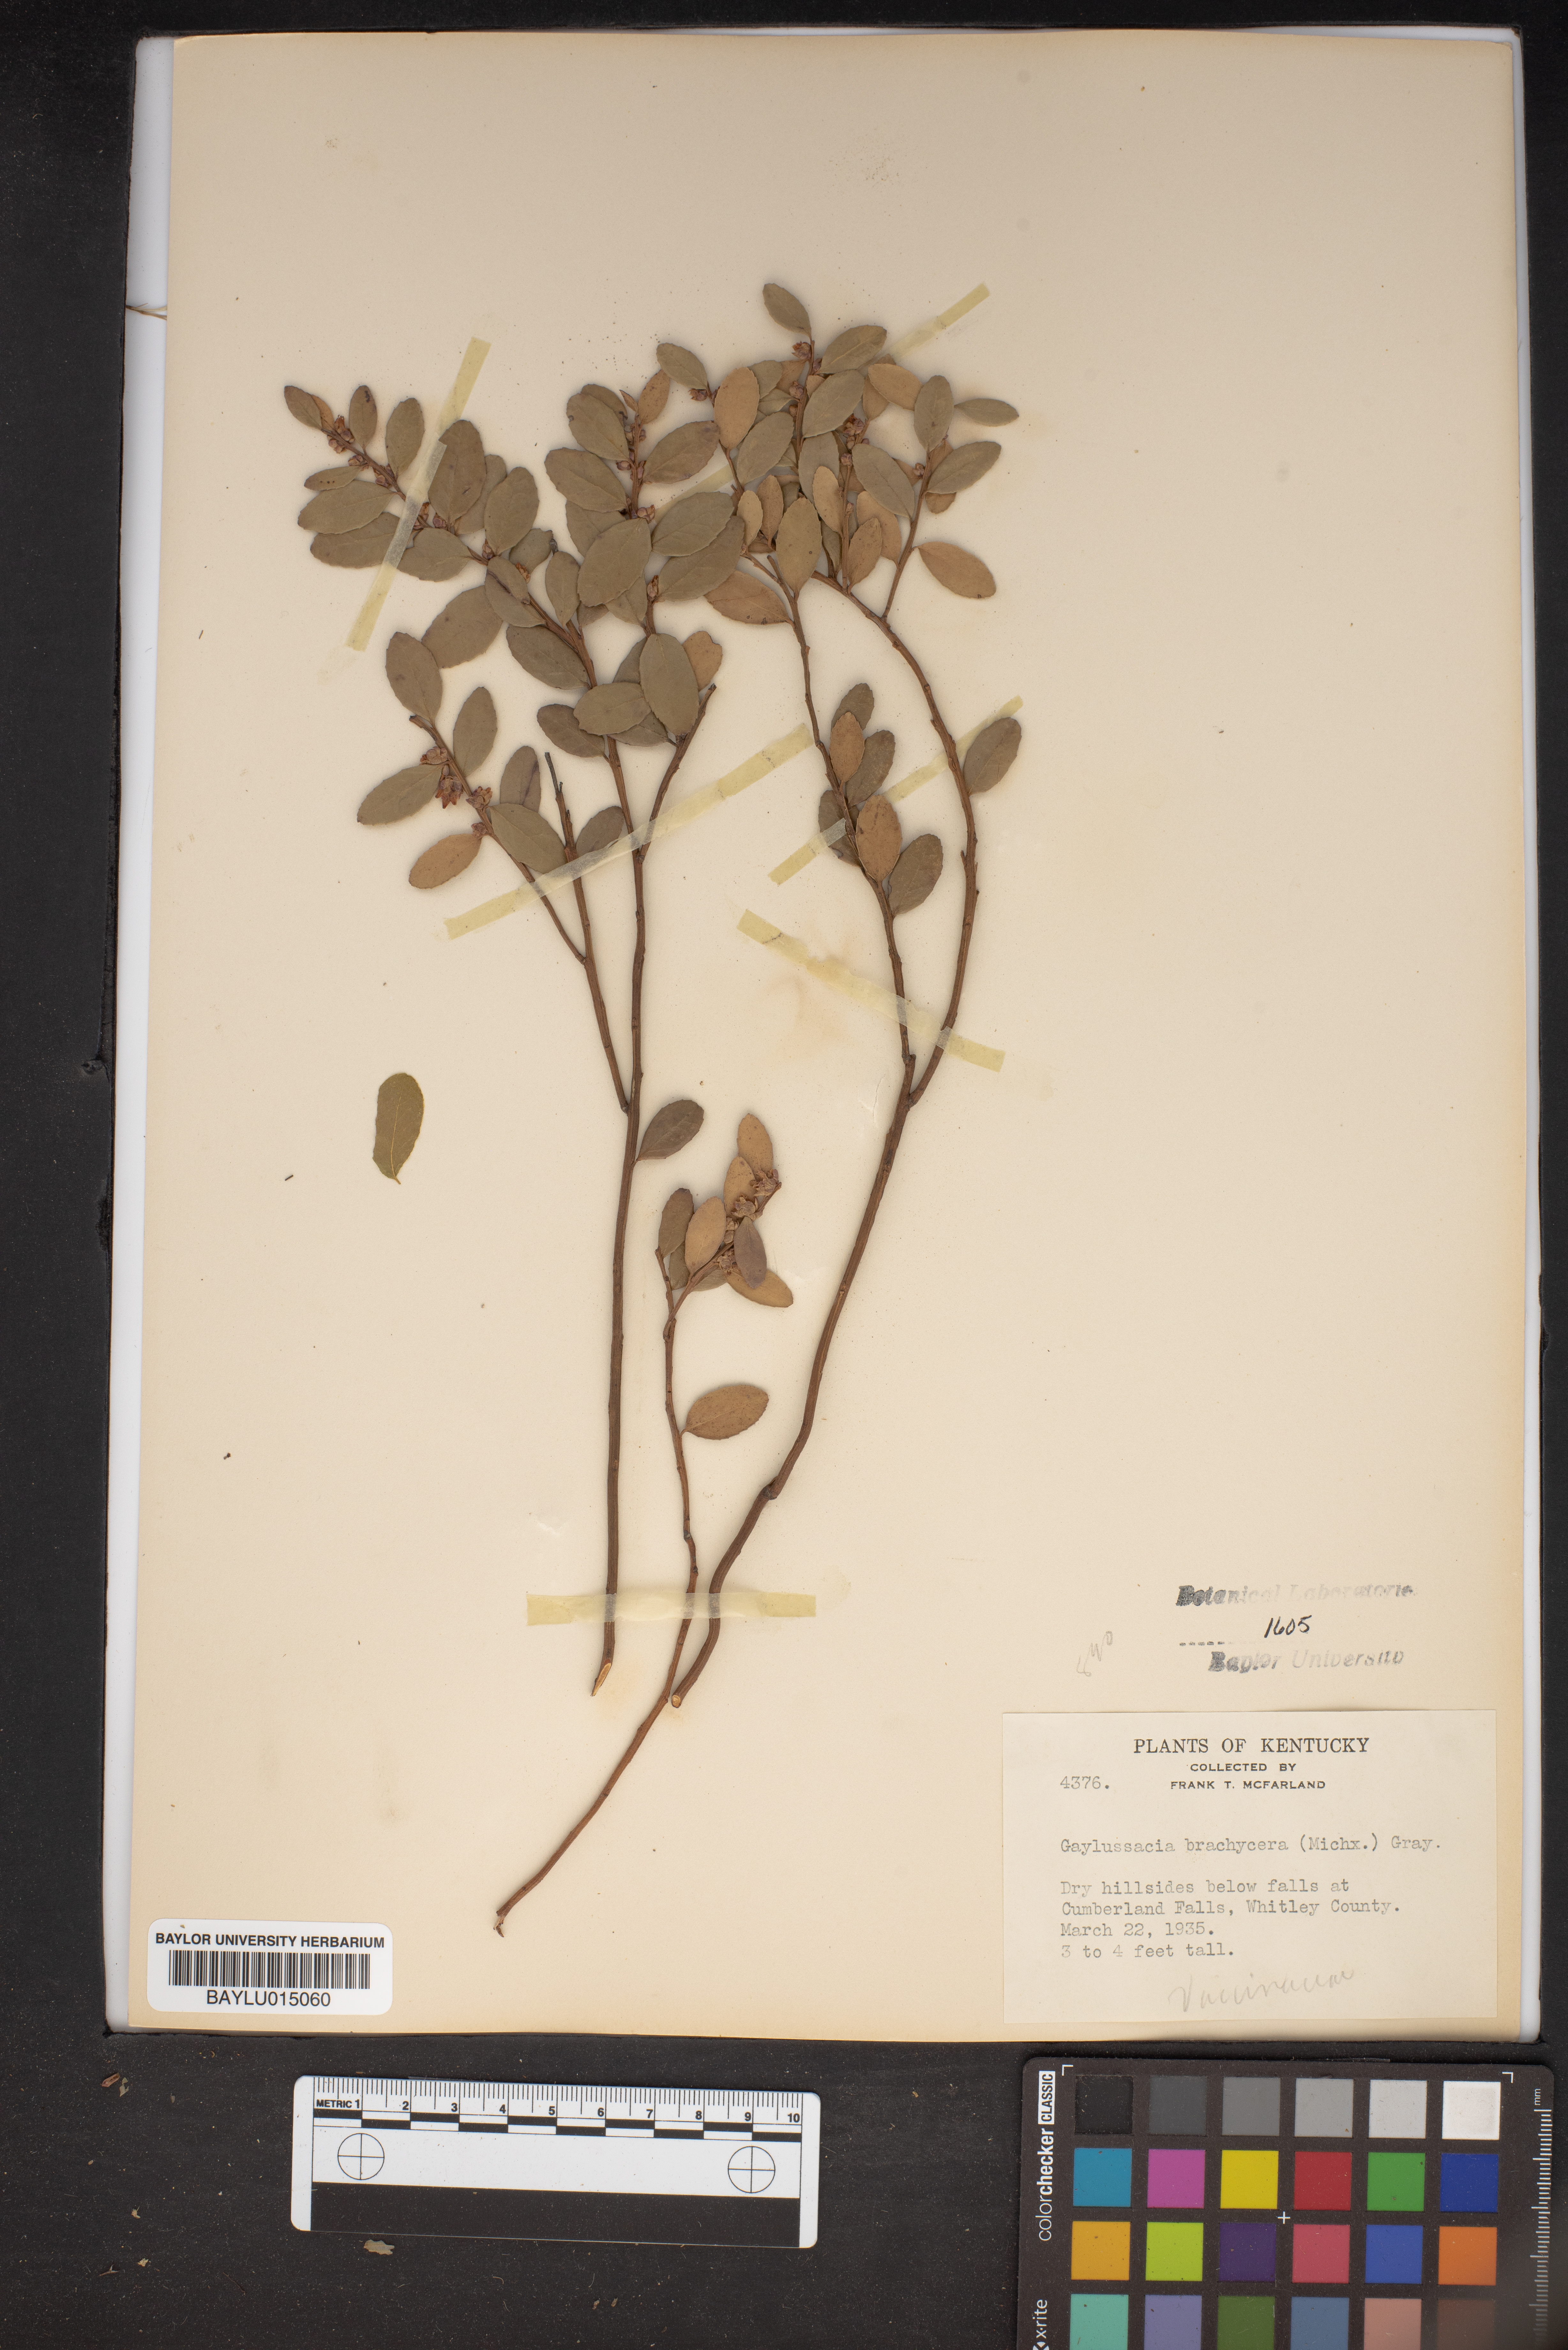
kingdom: Plantae
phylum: Tracheophyta
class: Magnoliopsida
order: Ericales
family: Ericaceae
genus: Gaylussacia
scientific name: Gaylussacia brachycera
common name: Box huckleberry
